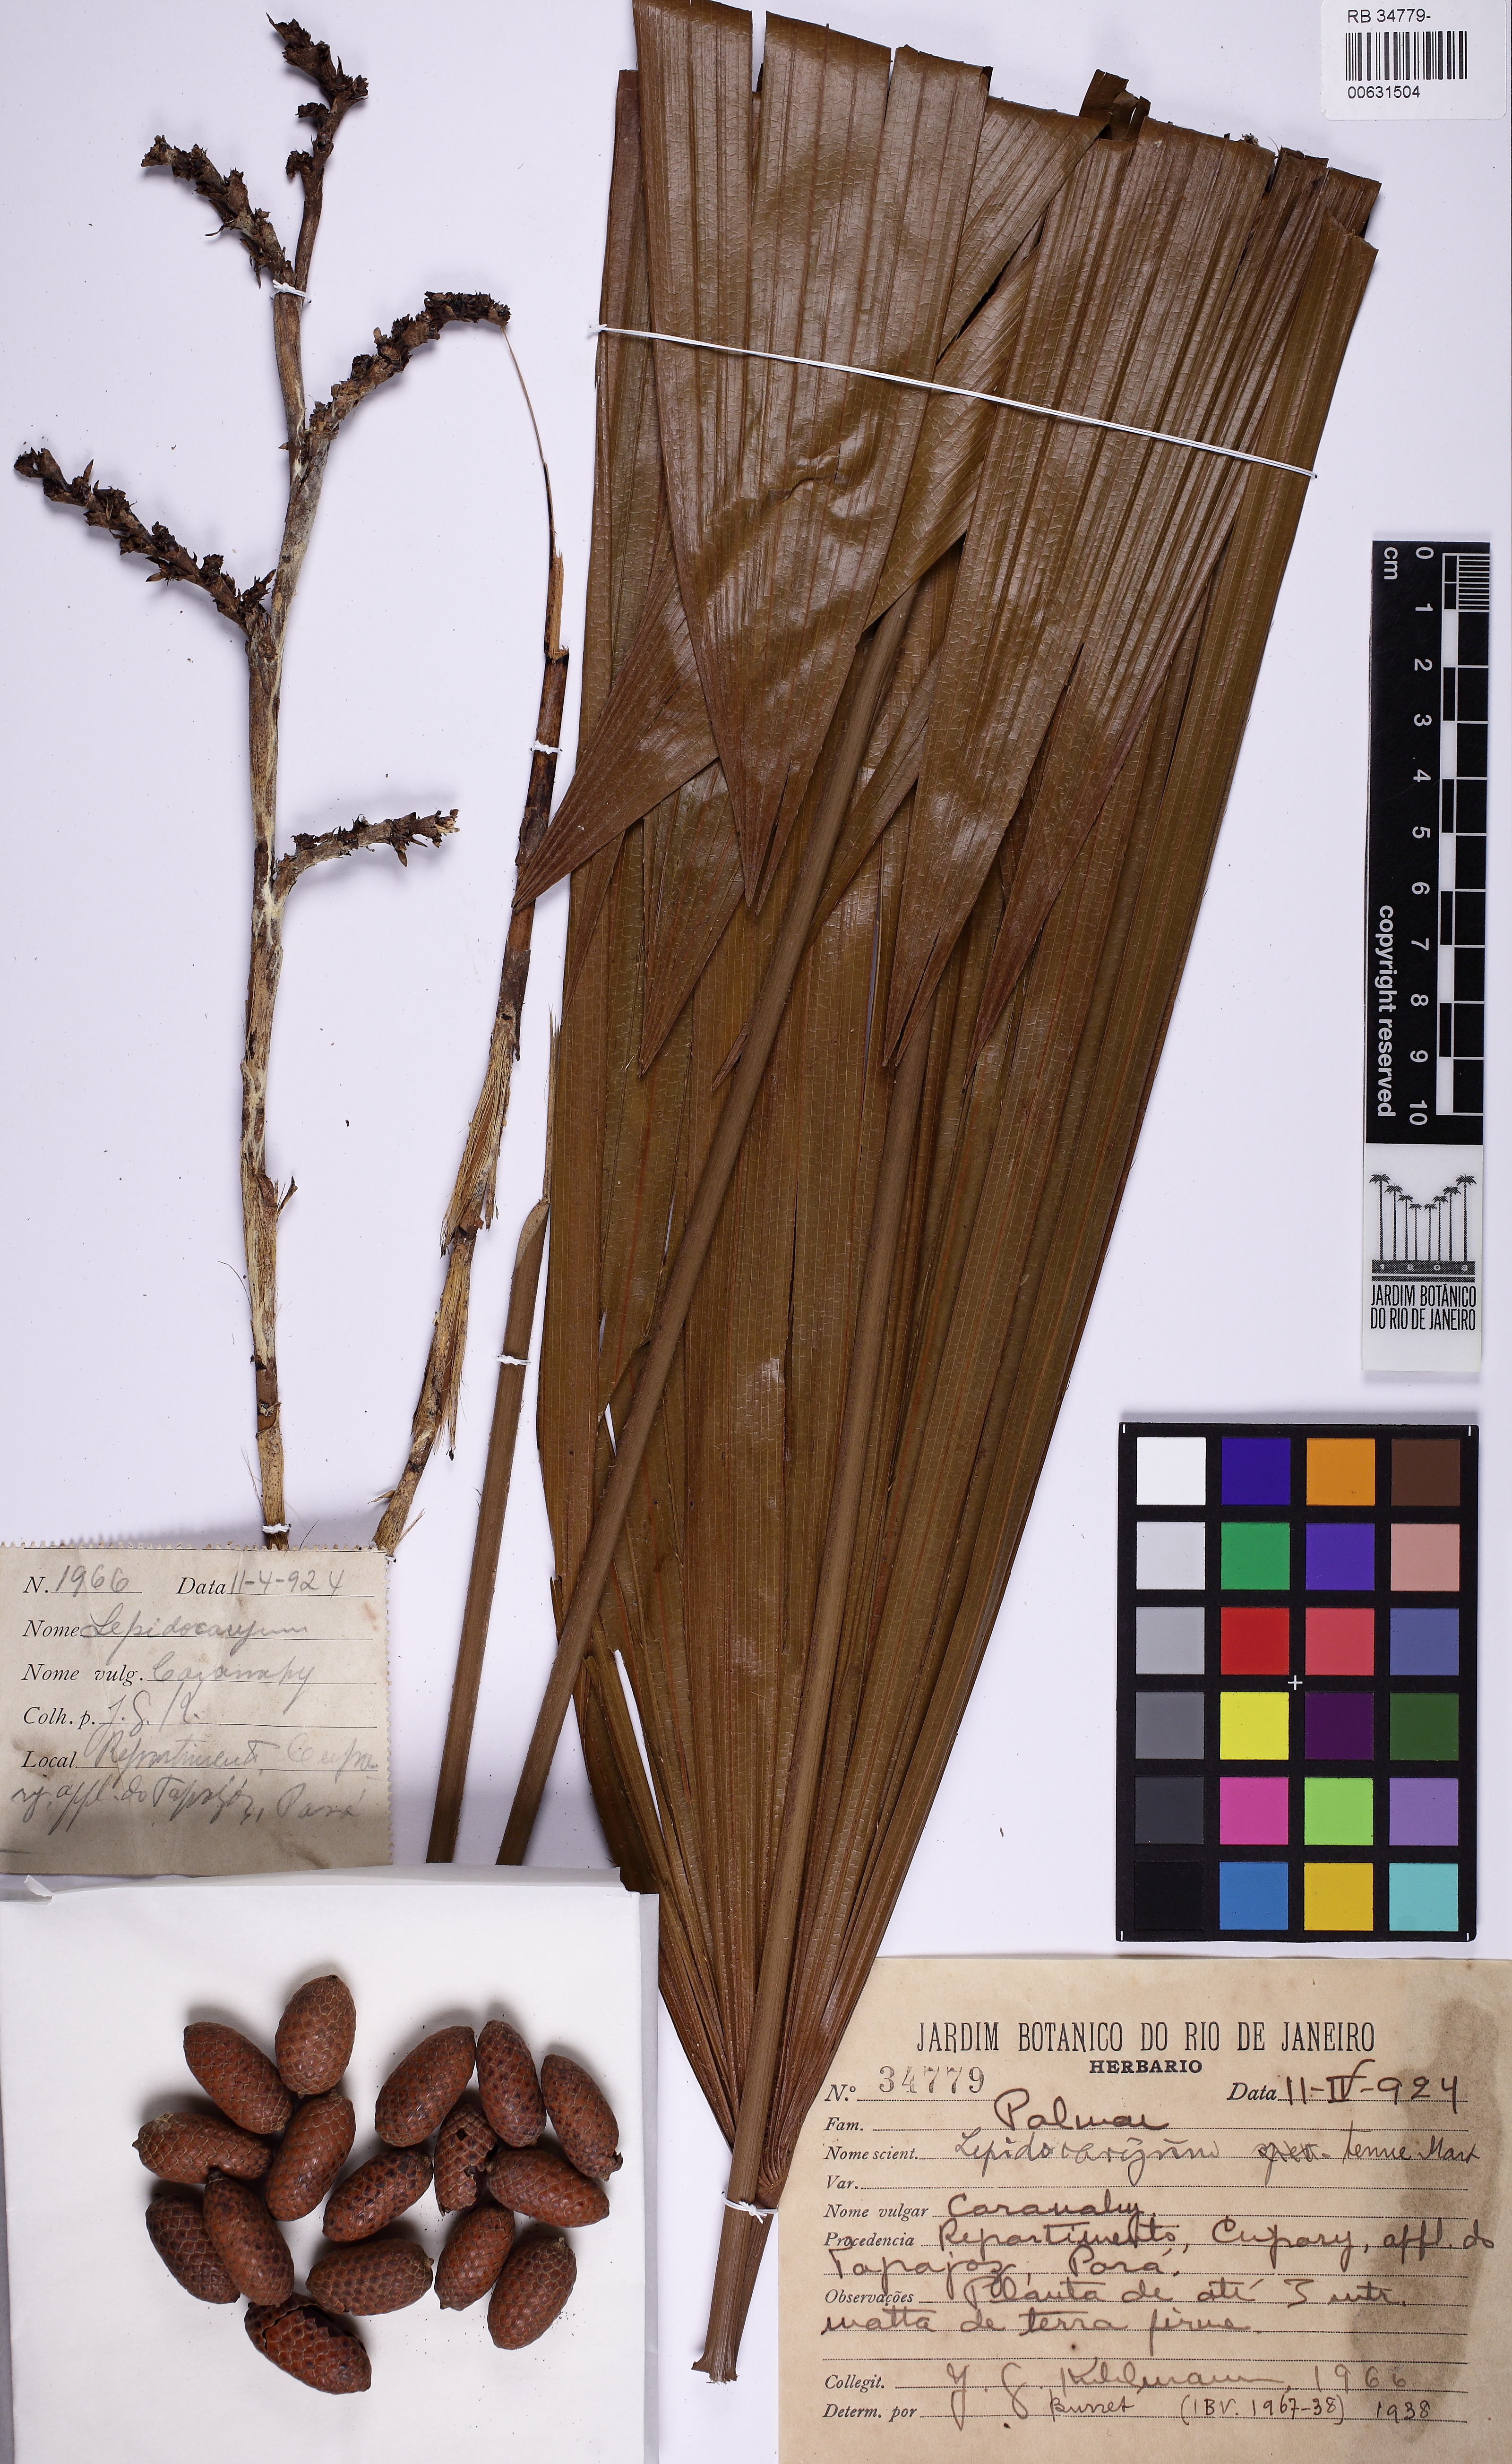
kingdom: Plantae
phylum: Tracheophyta
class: Liliopsida
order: Arecales
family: Arecaceae
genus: Lepidocaryum
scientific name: Lepidocaryum tenue
